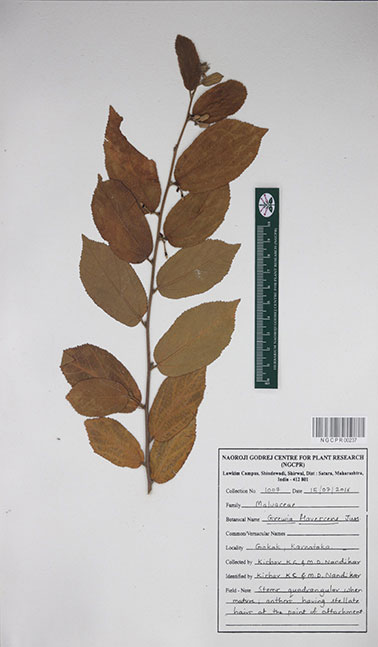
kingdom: Plantae
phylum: Tracheophyta
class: Magnoliopsida
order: Malvales
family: Malvaceae
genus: Grewia
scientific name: Grewia flavescens
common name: Sandpaper raisin
